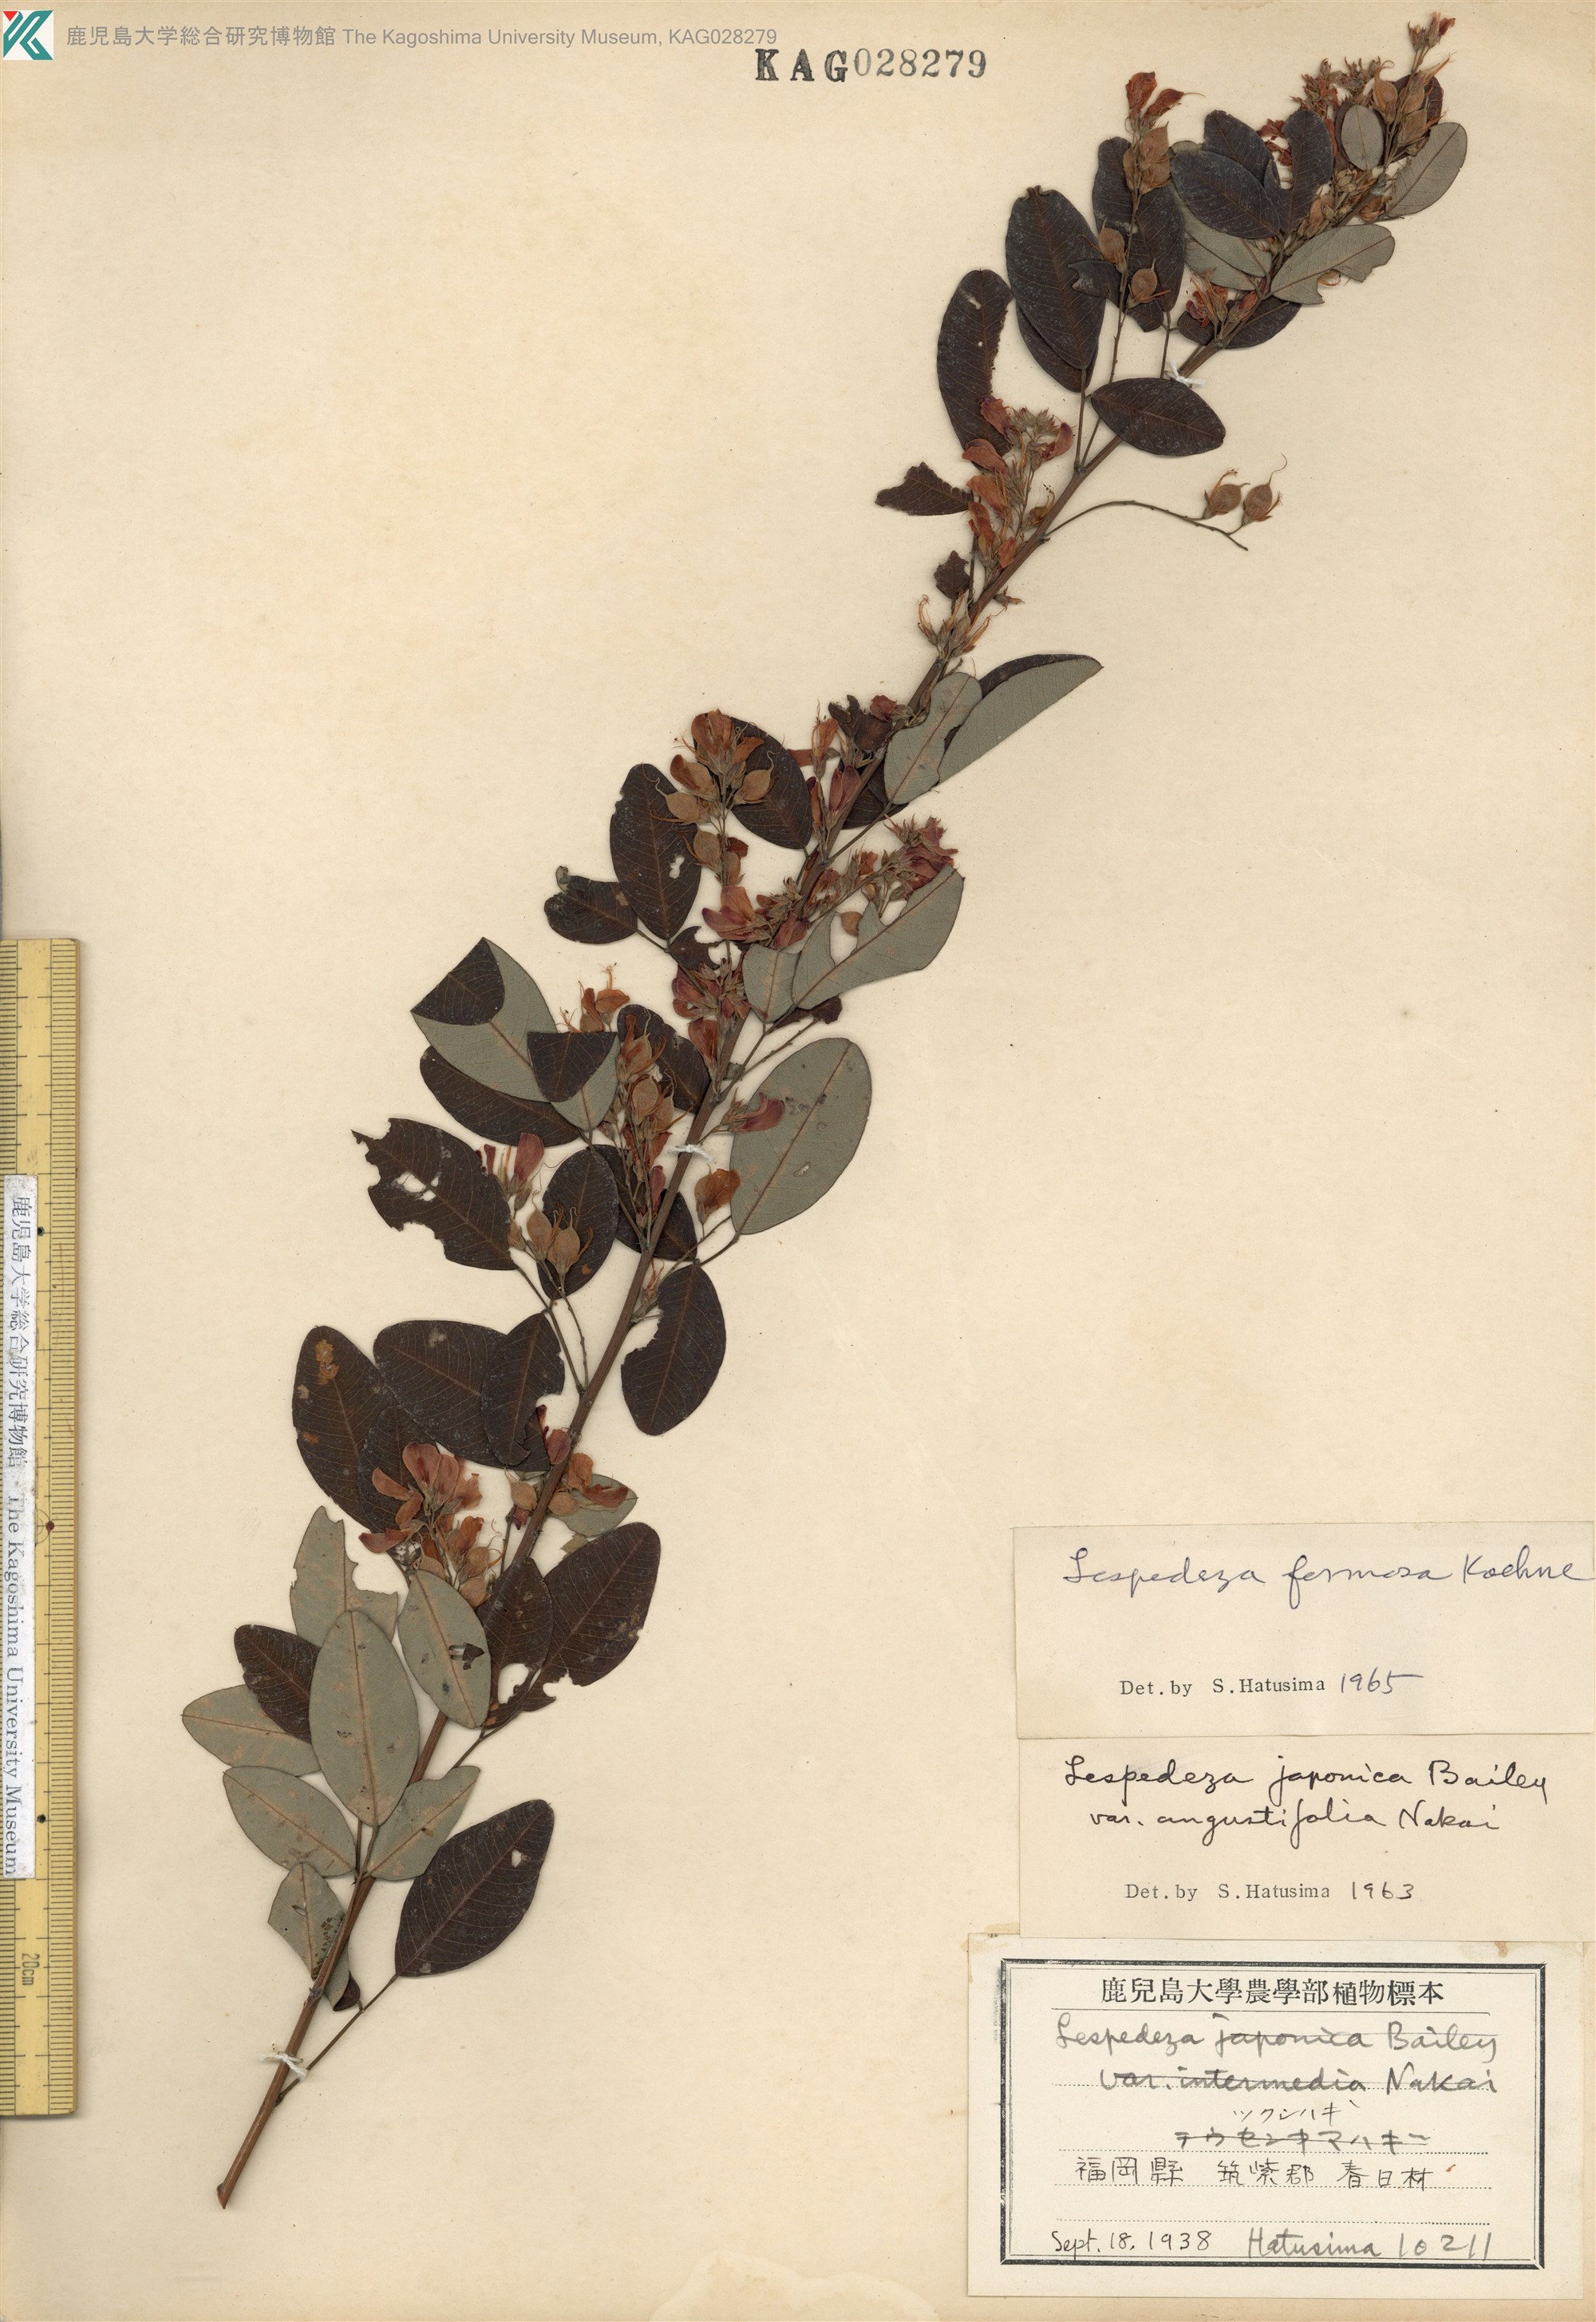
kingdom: Plantae
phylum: Tracheophyta
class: Magnoliopsida
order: Fabales
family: Fabaceae
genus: Lespedeza
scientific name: Lespedeza thunbergii
